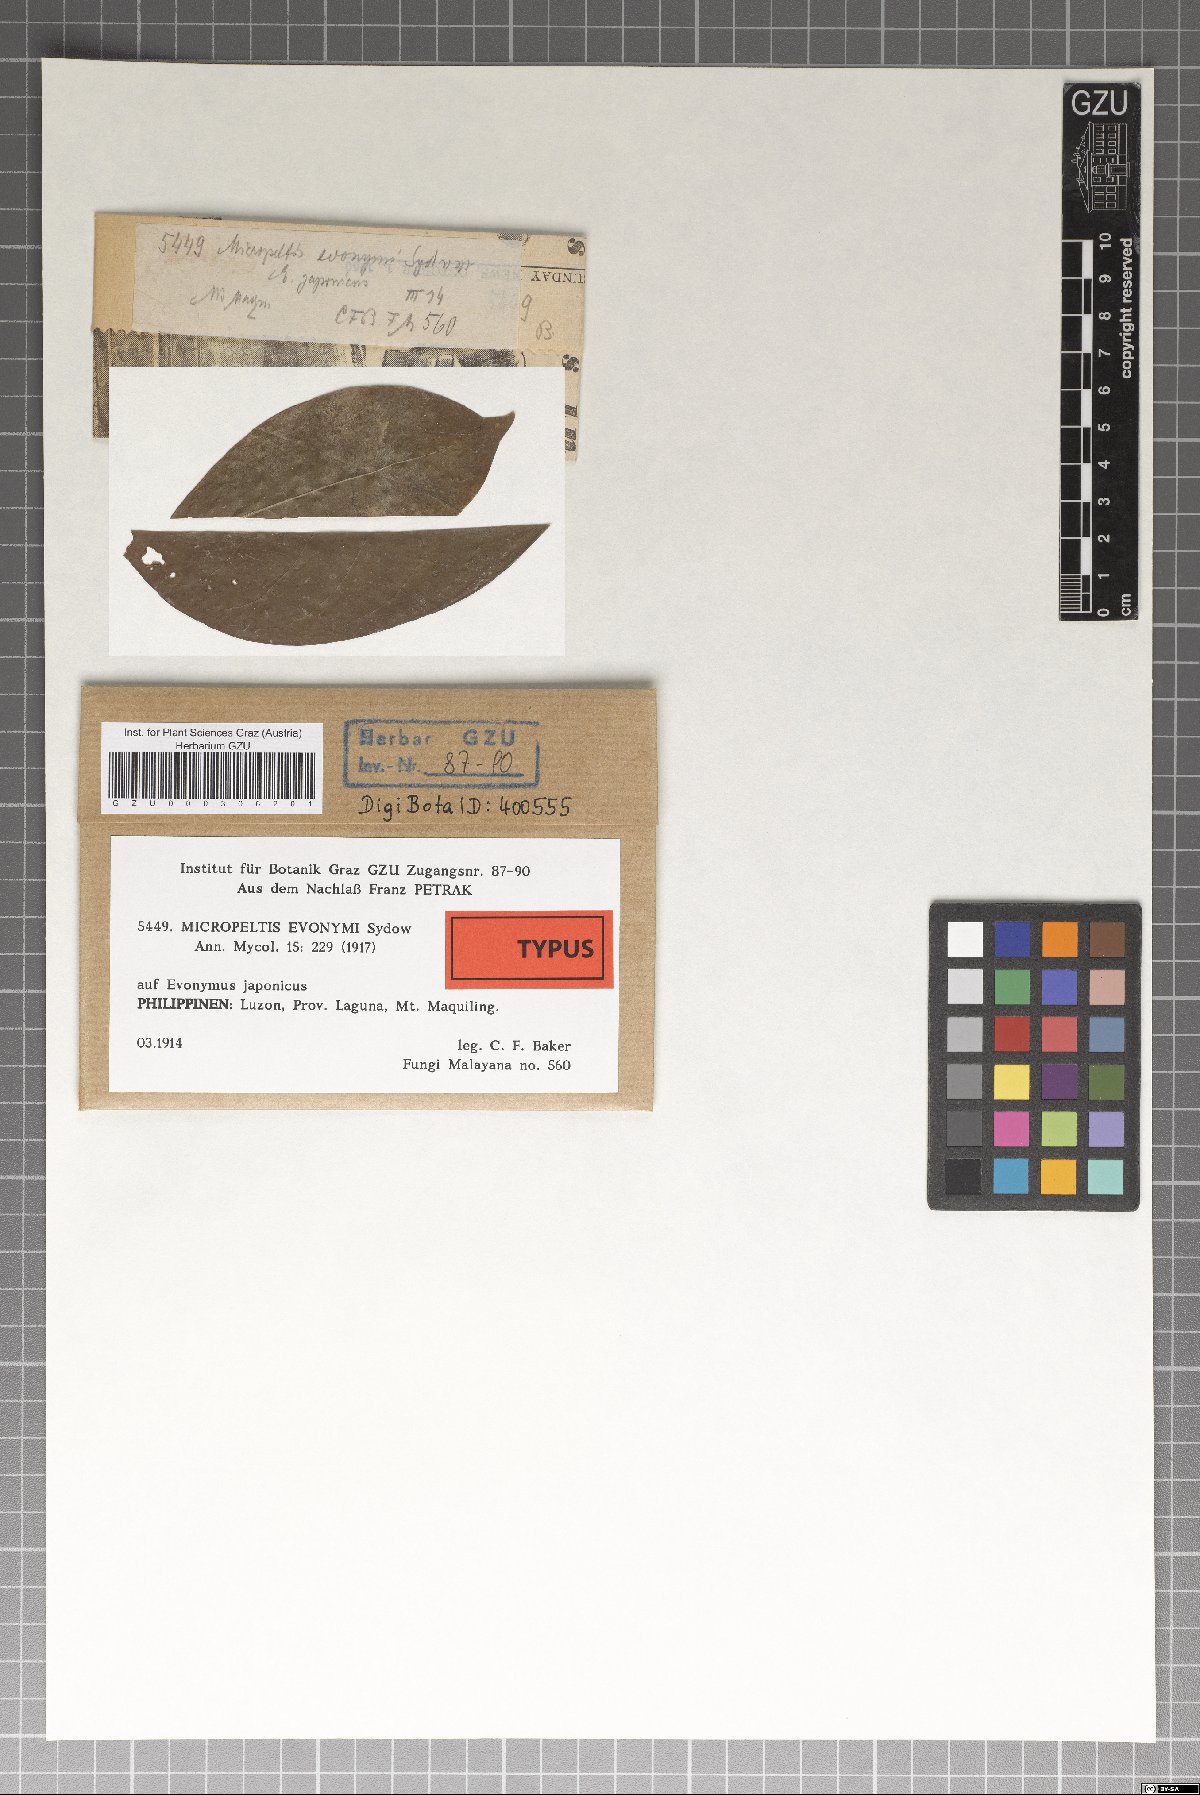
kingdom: Fungi
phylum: Ascomycota
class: Dothideomycetes
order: Microthyriales
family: Micropeltidaceae
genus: Micropeltis
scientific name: Micropeltis euonymi
